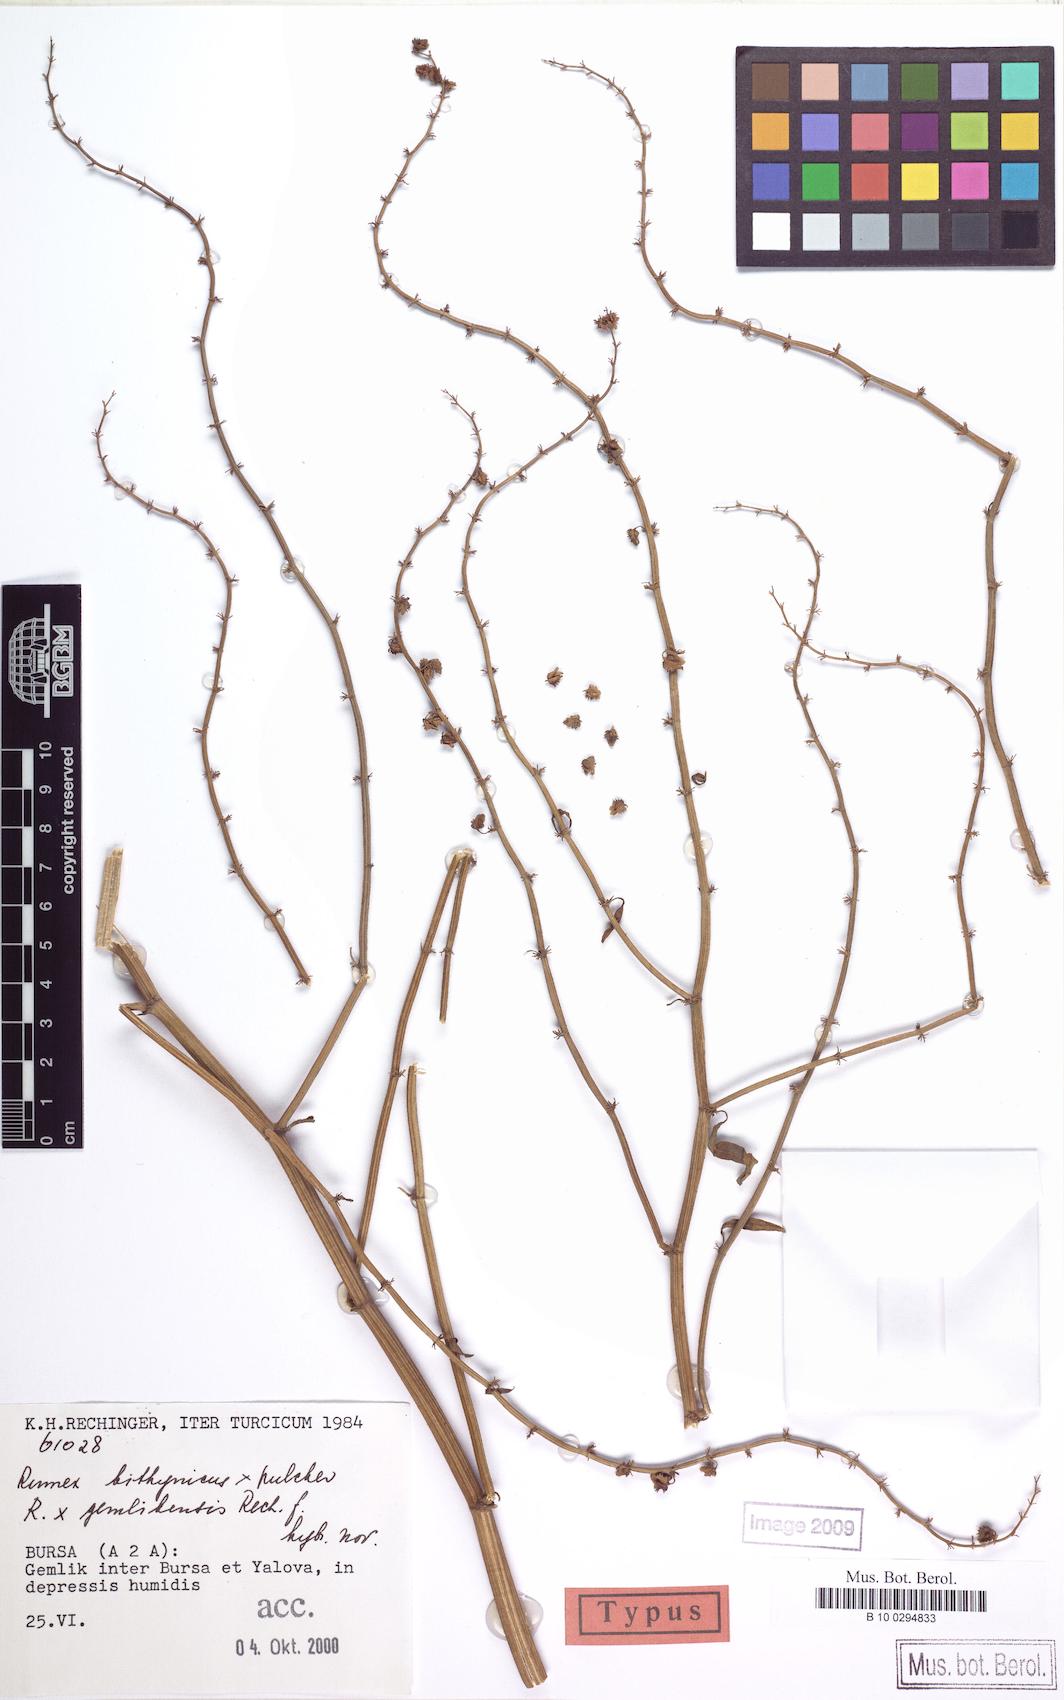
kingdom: Plantae
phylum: Tracheophyta
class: Magnoliopsida
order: Caryophyllales
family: Polygonaceae
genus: Rumex
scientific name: Rumex bithynicus
